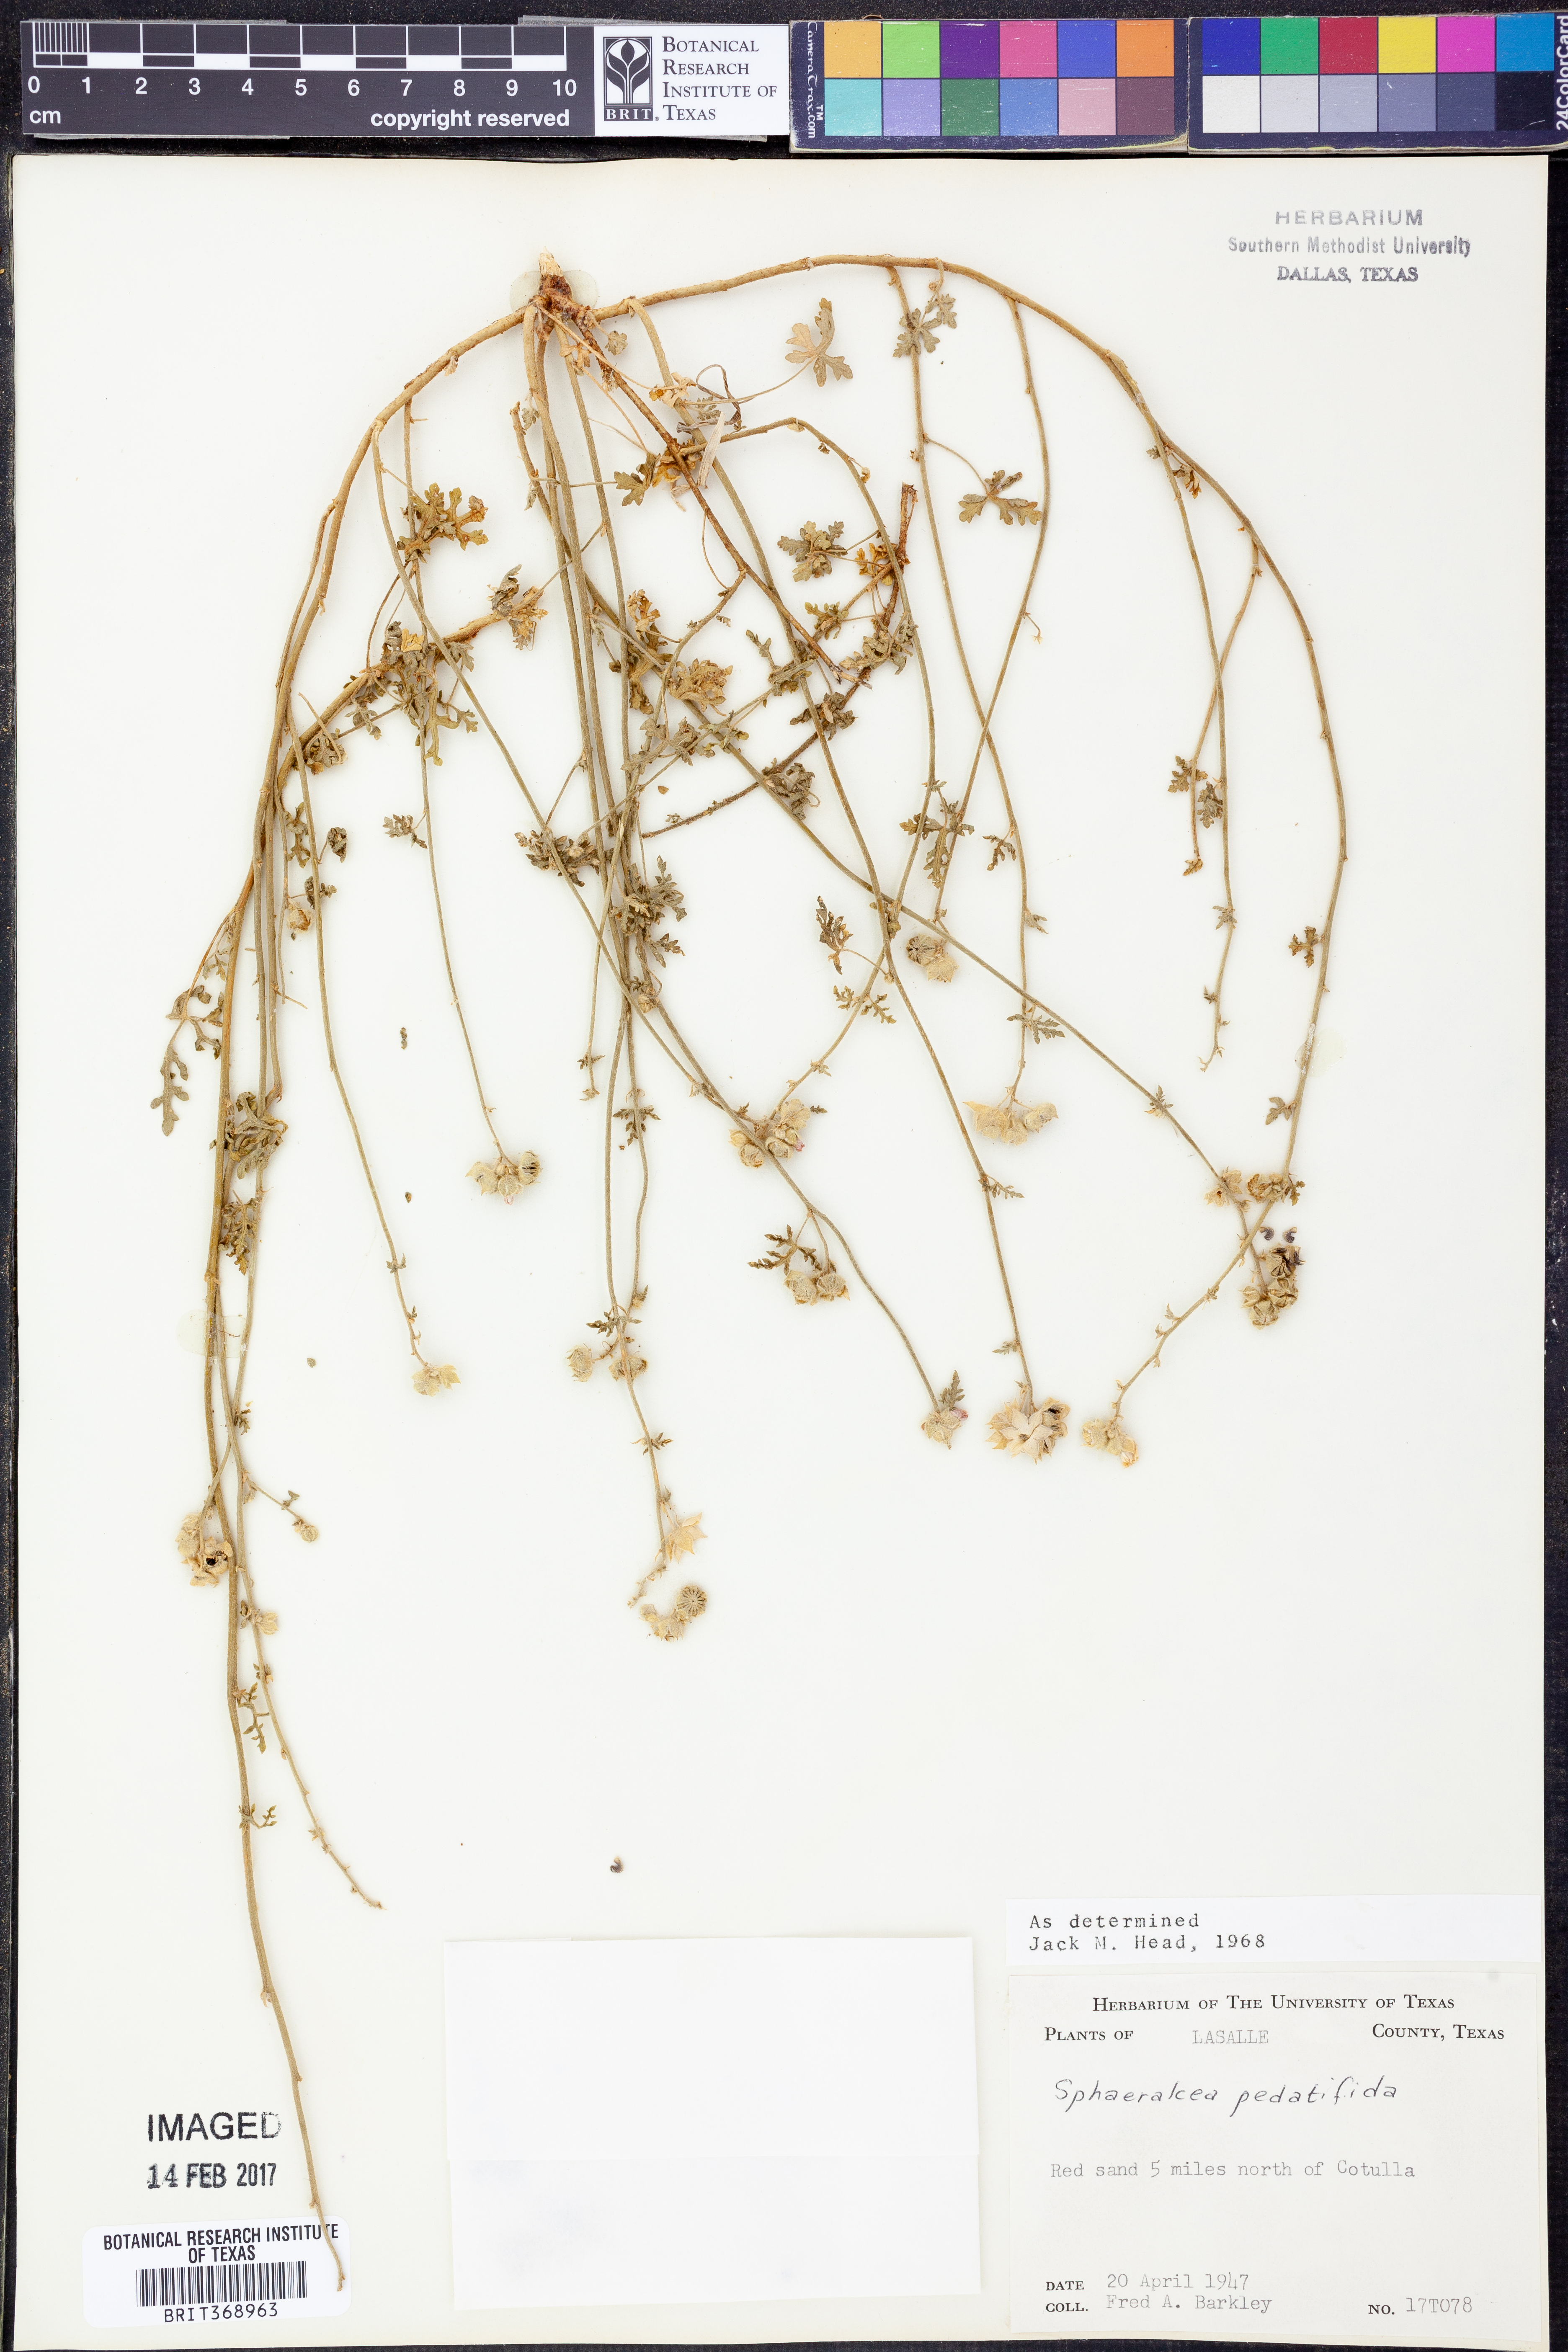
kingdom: Plantae
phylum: Tracheophyta
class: Magnoliopsida
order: Malvales
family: Malvaceae
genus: Sphaeralcea
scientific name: Sphaeralcea pedatifida
